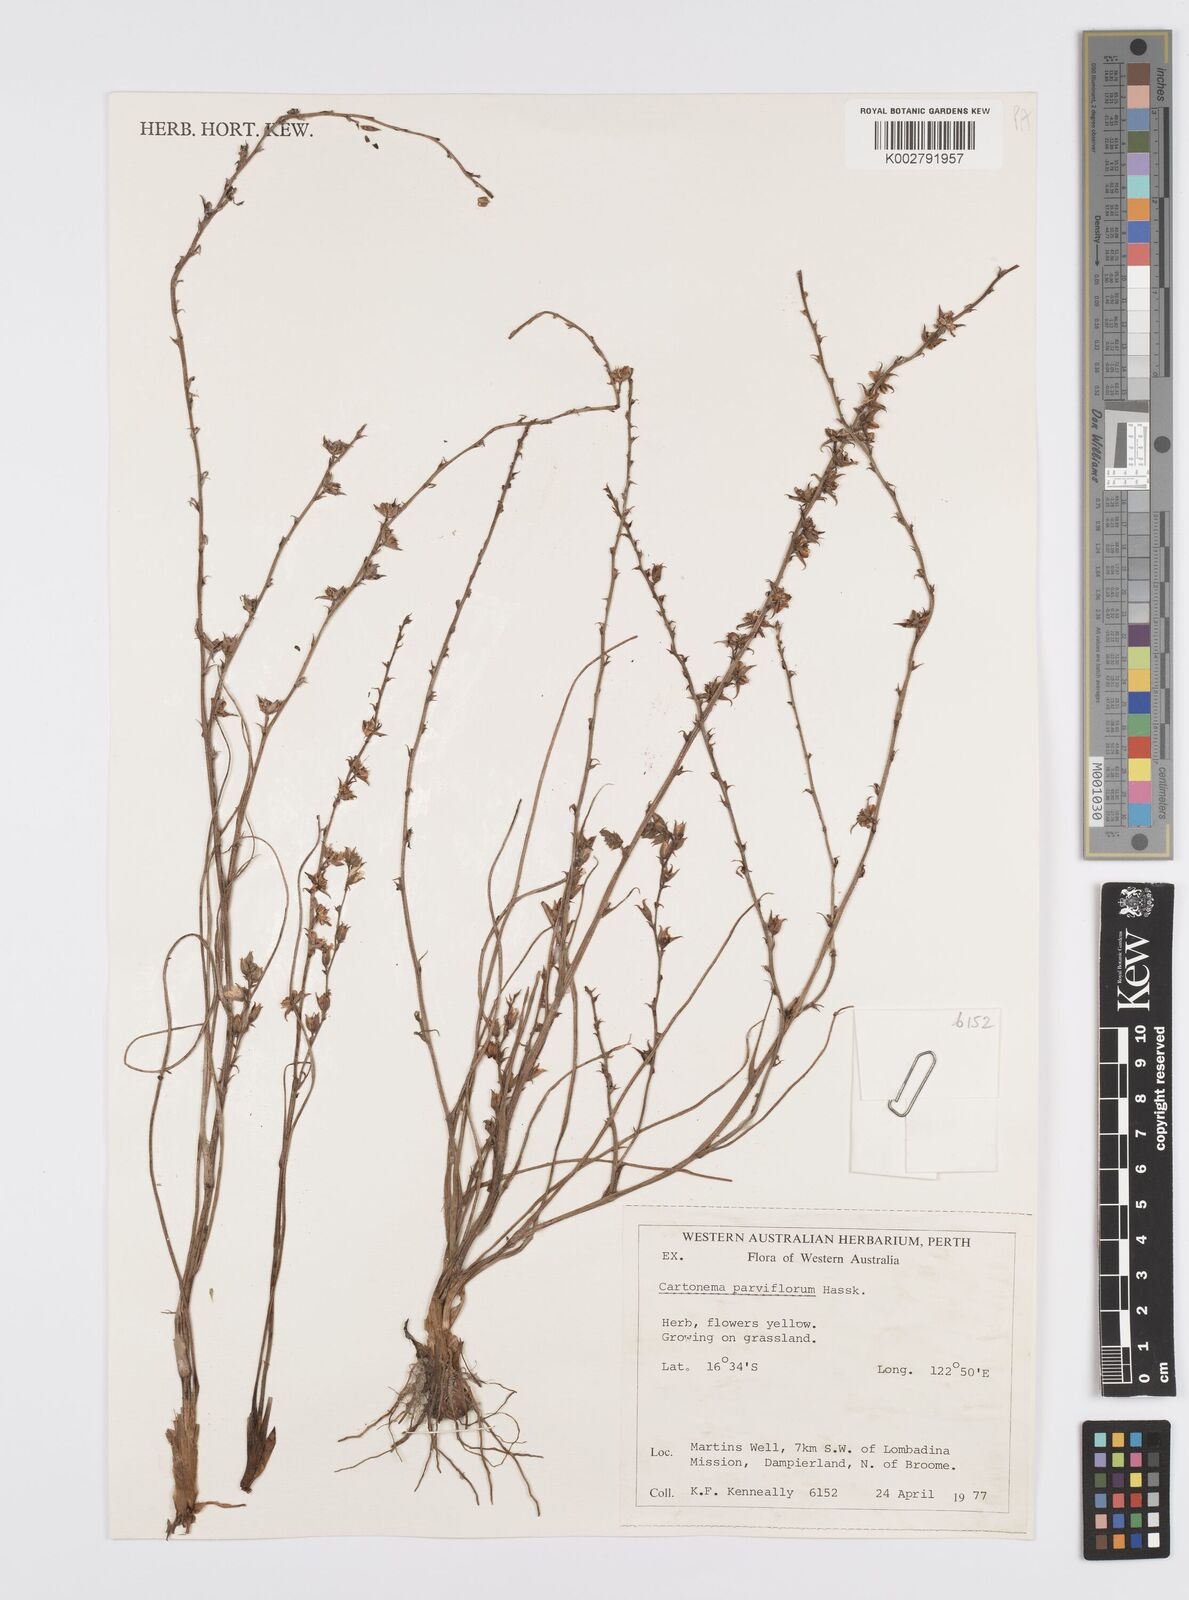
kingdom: Plantae
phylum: Tracheophyta
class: Liliopsida
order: Commelinales
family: Commelinaceae
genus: Cartonema
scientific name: Cartonema parviflorum
